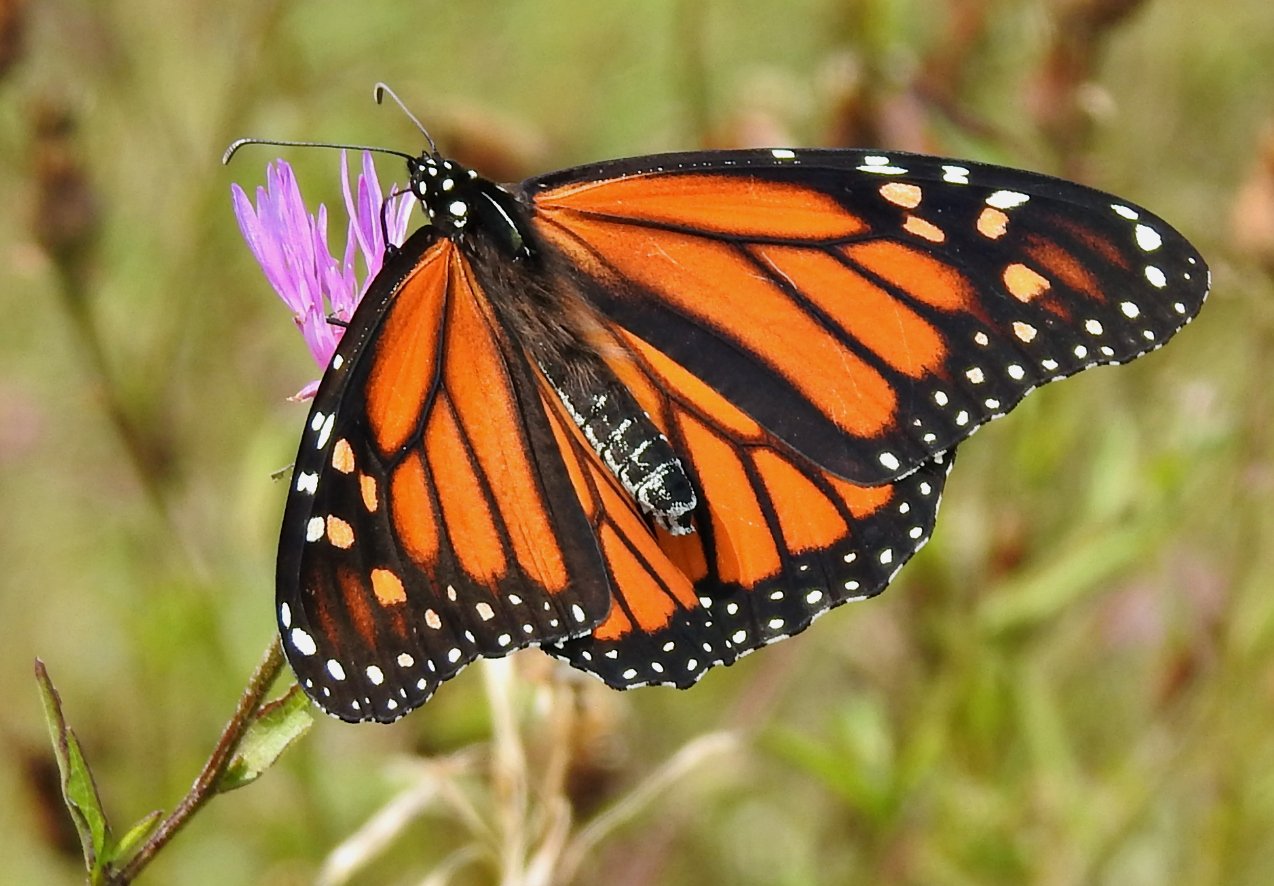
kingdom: Animalia
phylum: Arthropoda
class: Insecta
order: Lepidoptera
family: Nymphalidae
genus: Danaus
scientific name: Danaus plexippus
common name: Monarch
